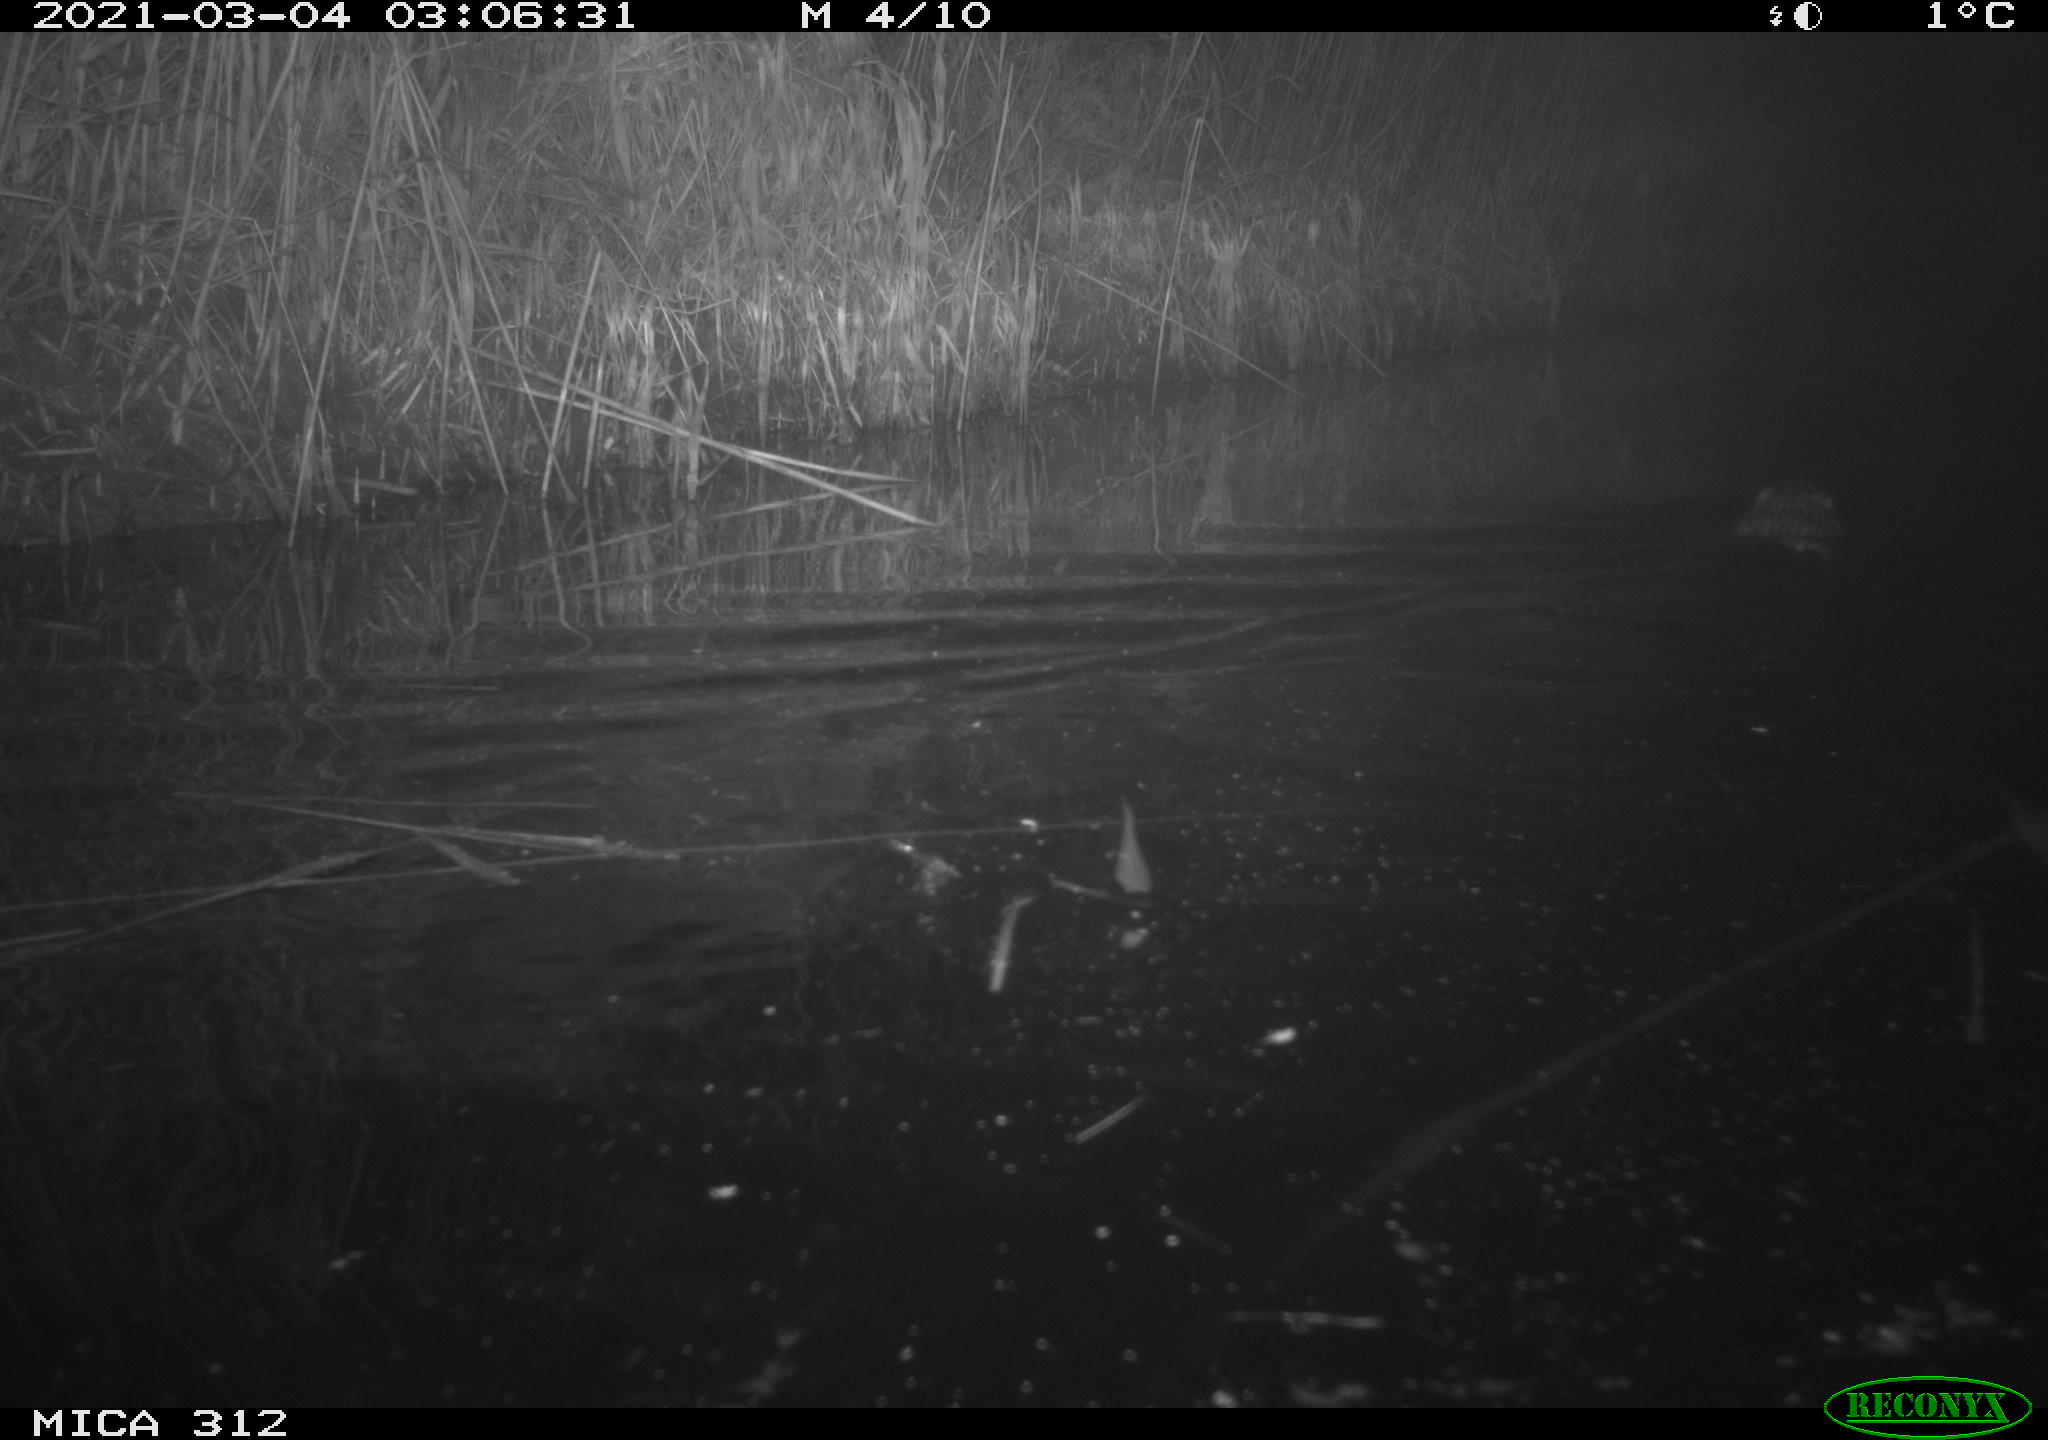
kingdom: Animalia
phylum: Chordata
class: Mammalia
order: Rodentia
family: Cricetidae
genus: Ondatra
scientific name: Ondatra zibethicus
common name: Muskrat
